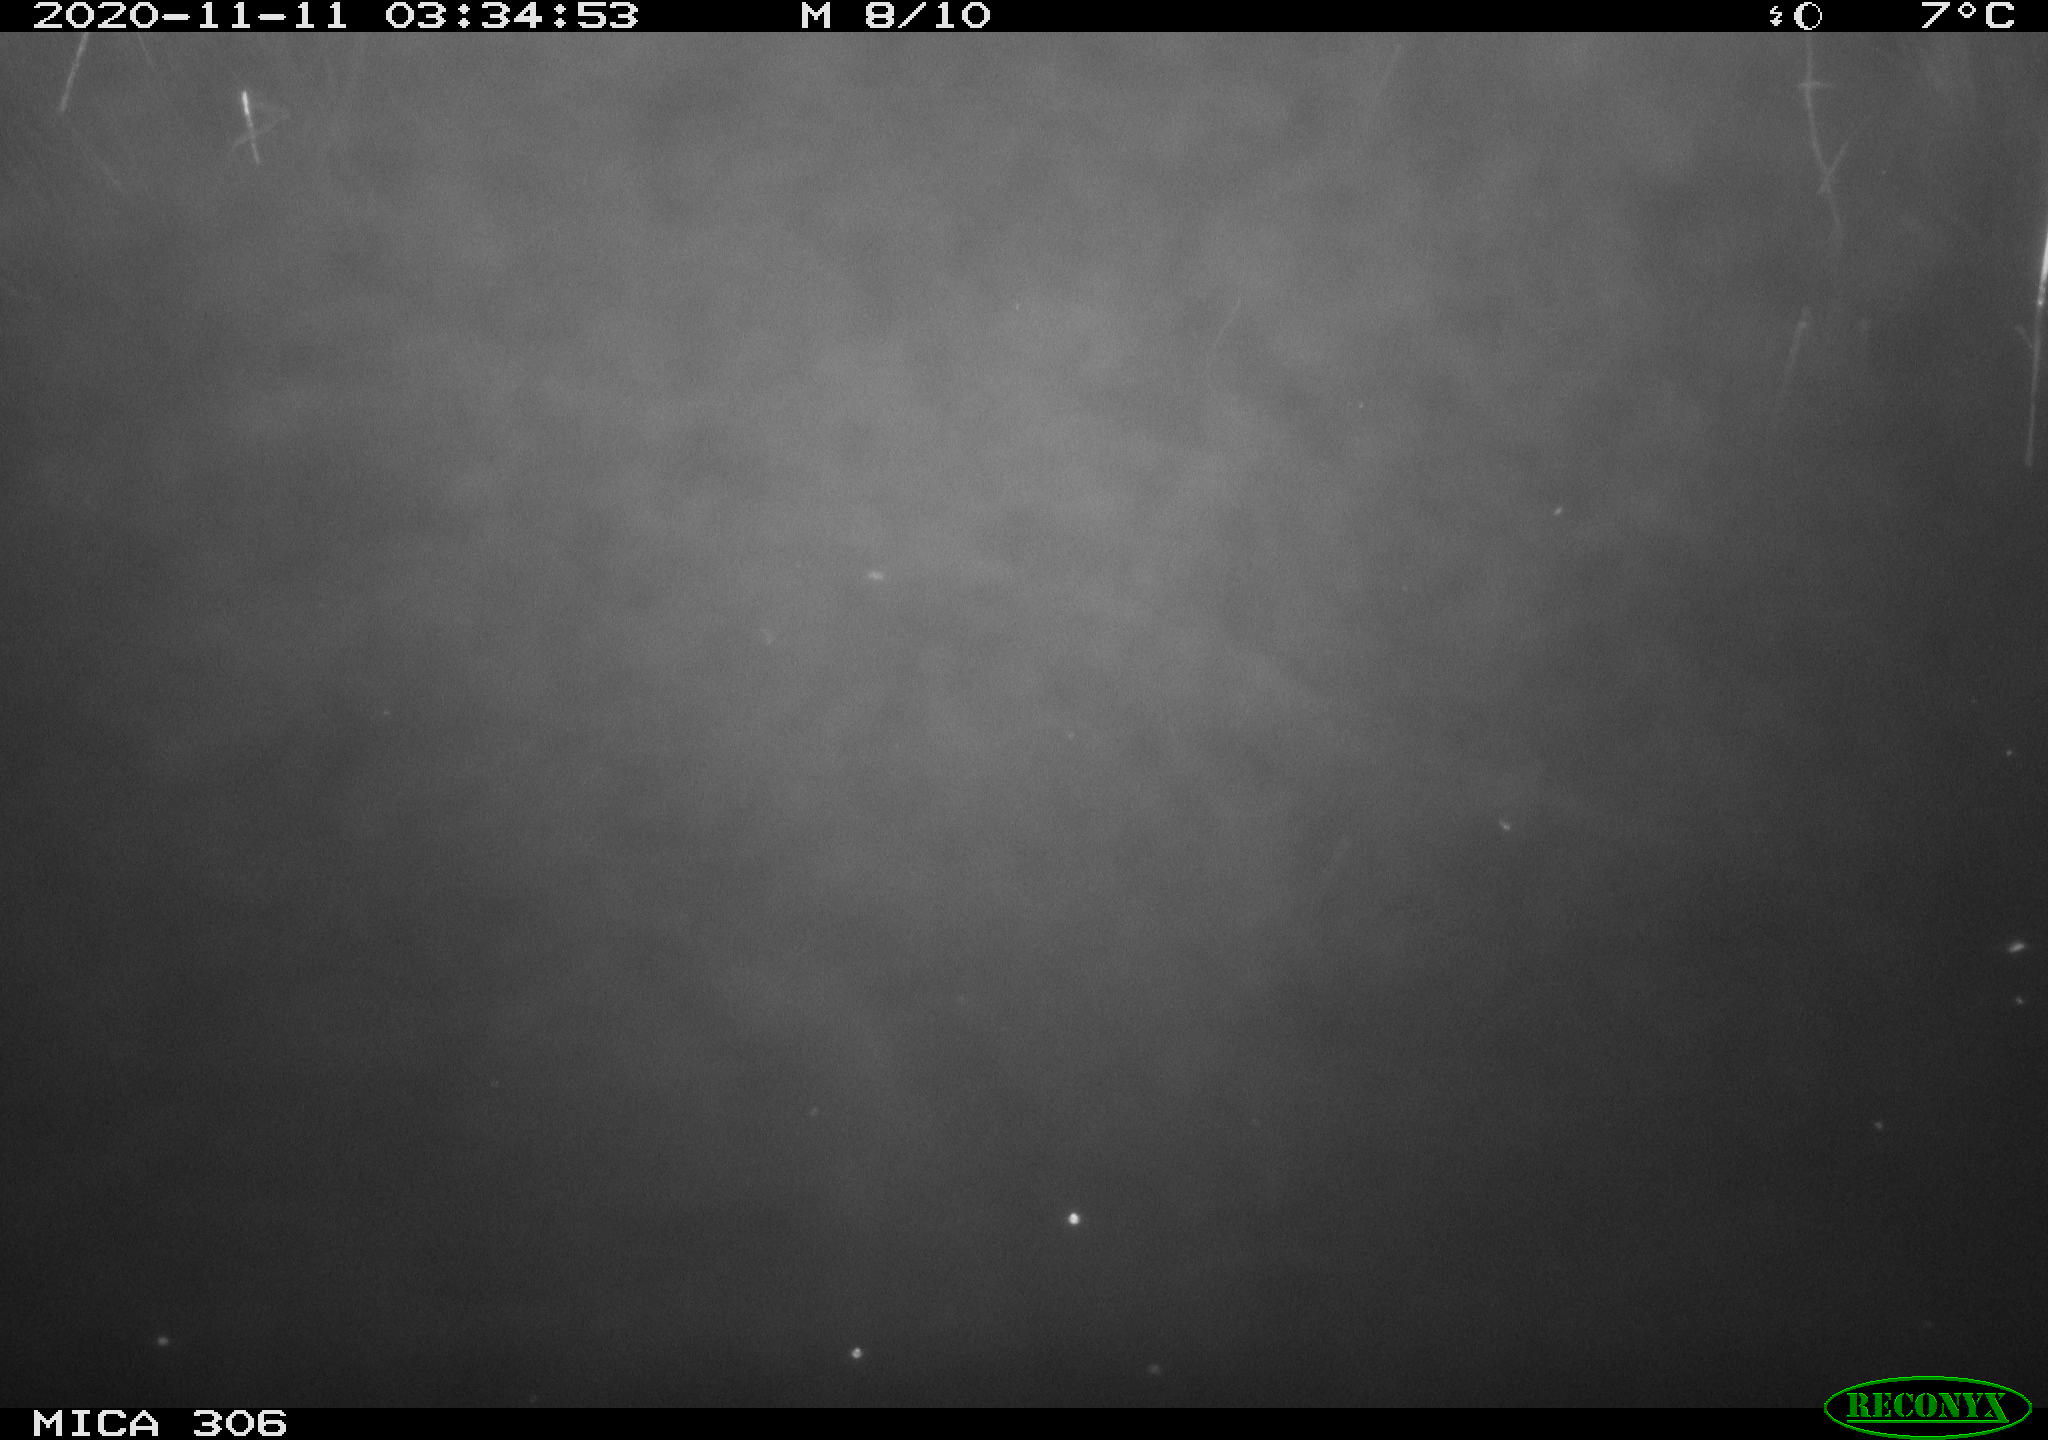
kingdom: Animalia
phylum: Chordata
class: Mammalia
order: Rodentia
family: Muridae
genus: Rattus
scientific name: Rattus norvegicus
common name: Brown rat
